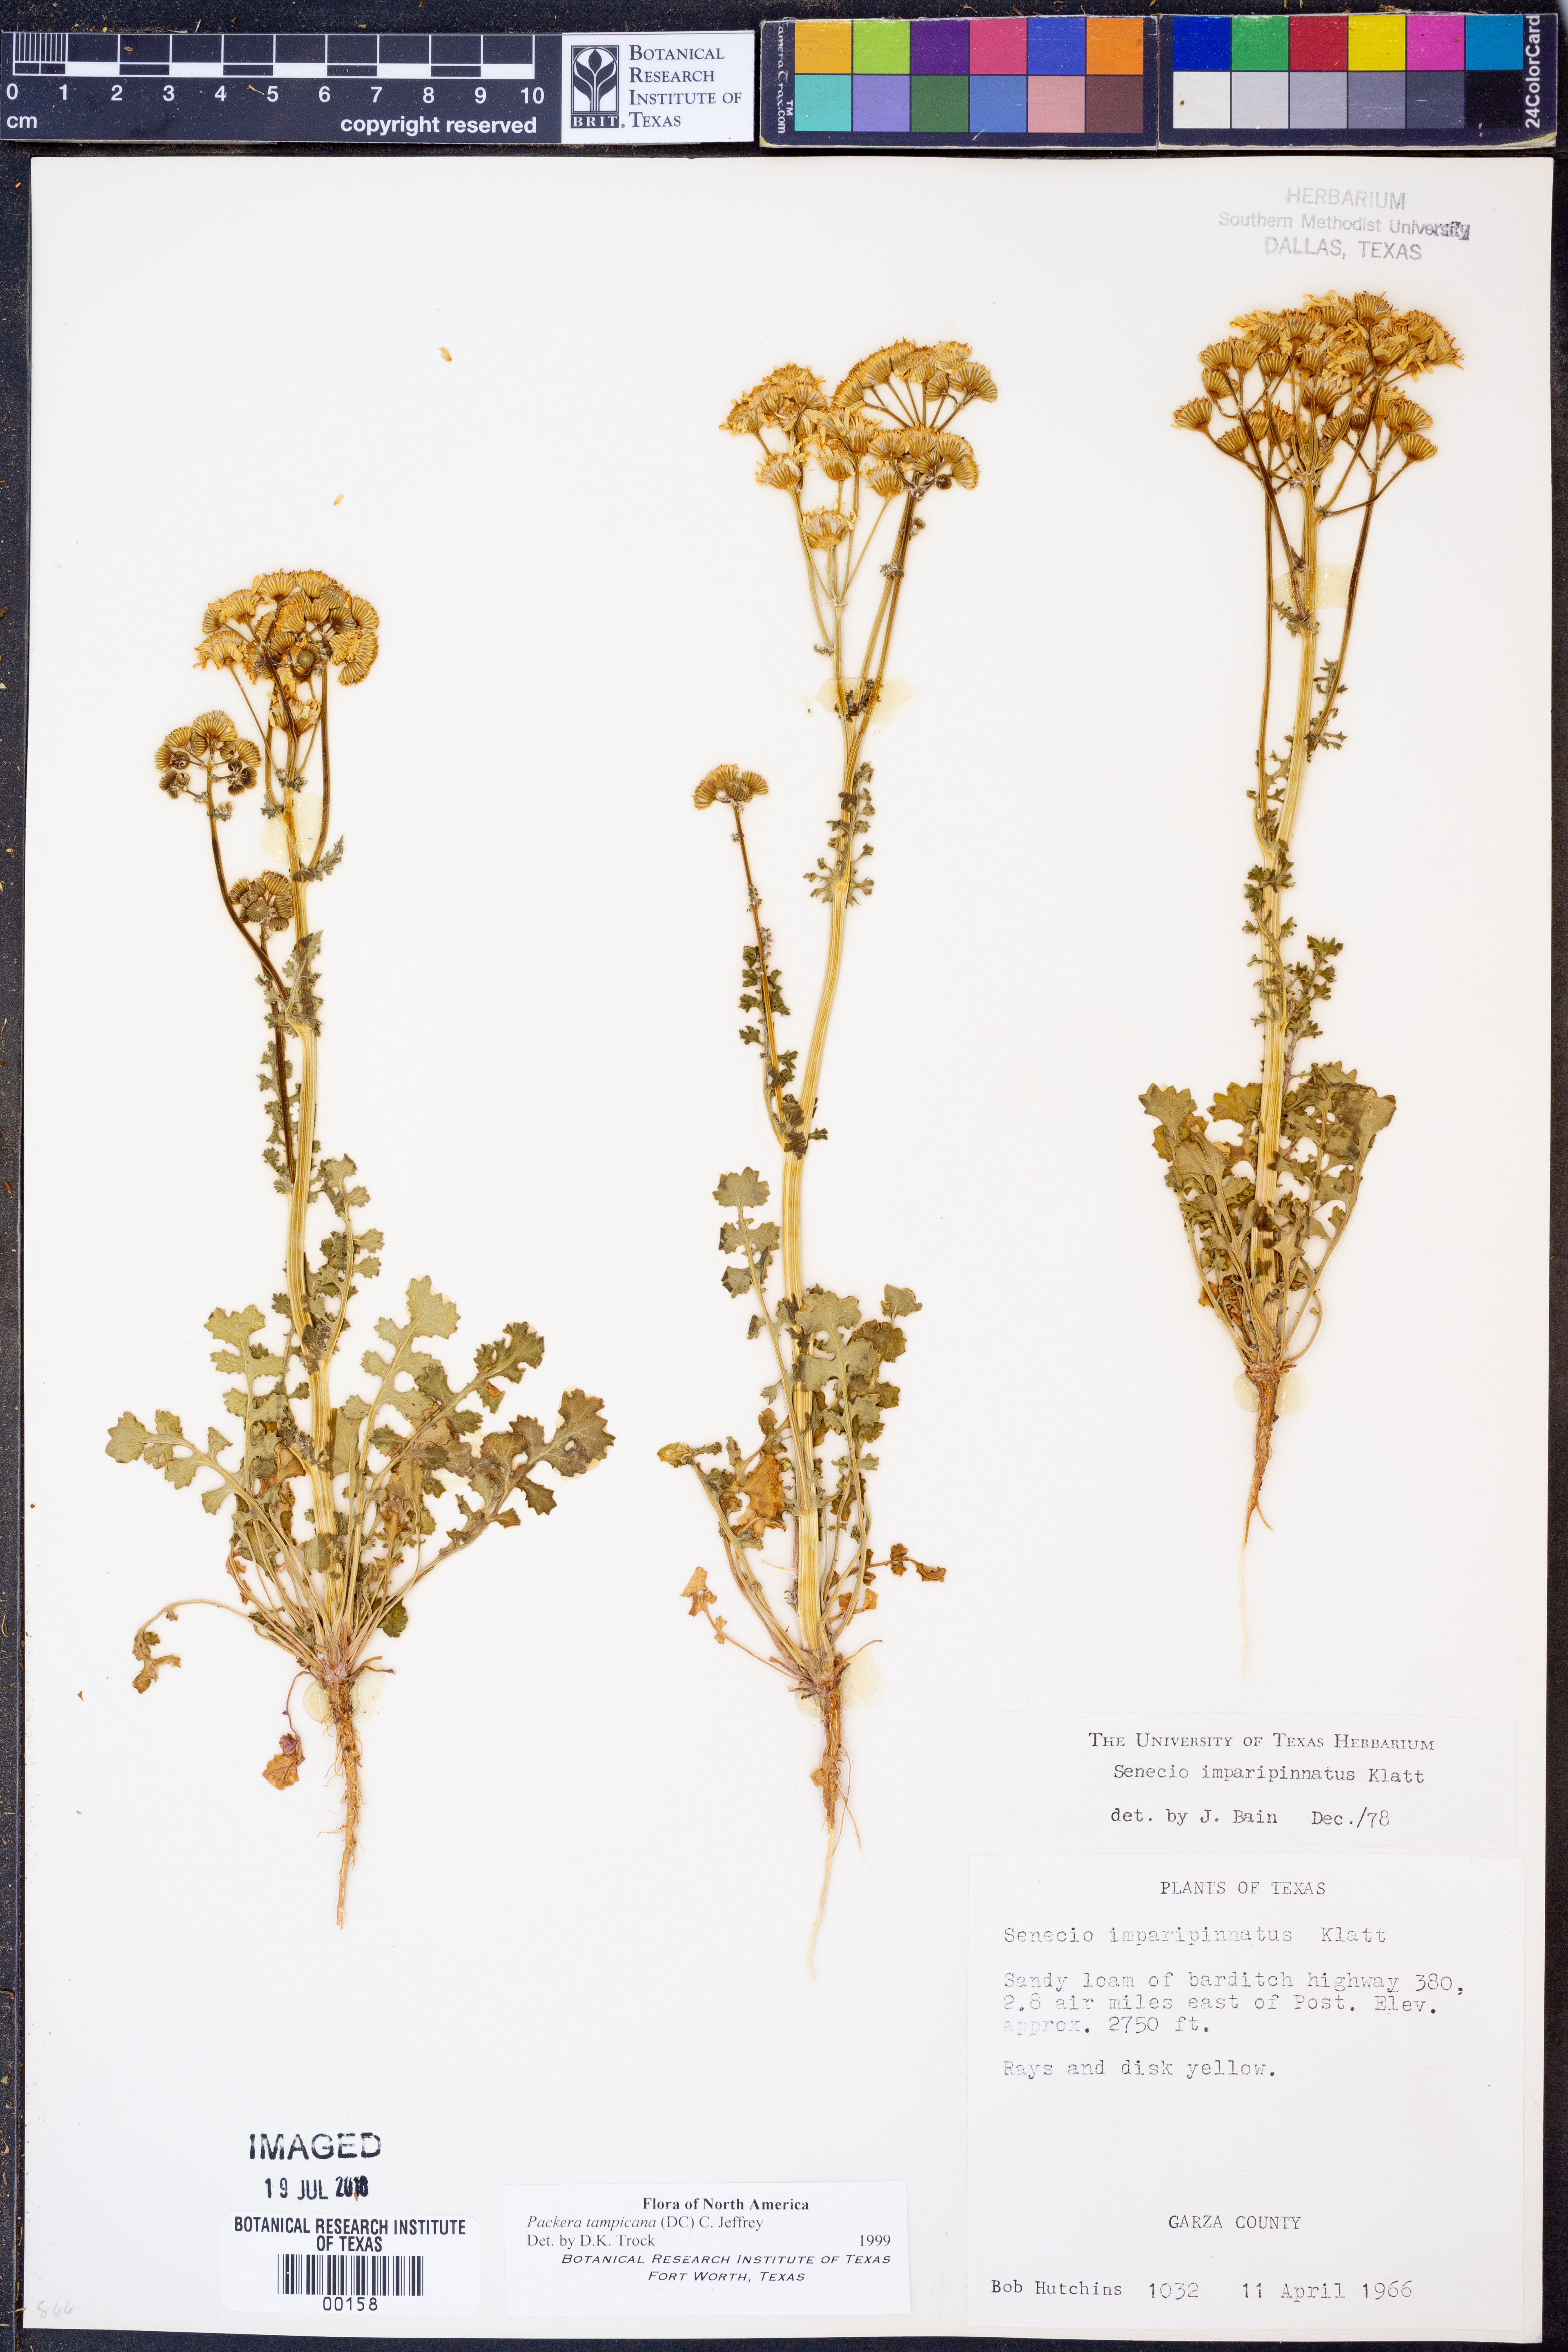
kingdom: Plantae
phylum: Tracheophyta
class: Magnoliopsida
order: Asterales
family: Asteraceae
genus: Packera
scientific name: Packera tampicana
